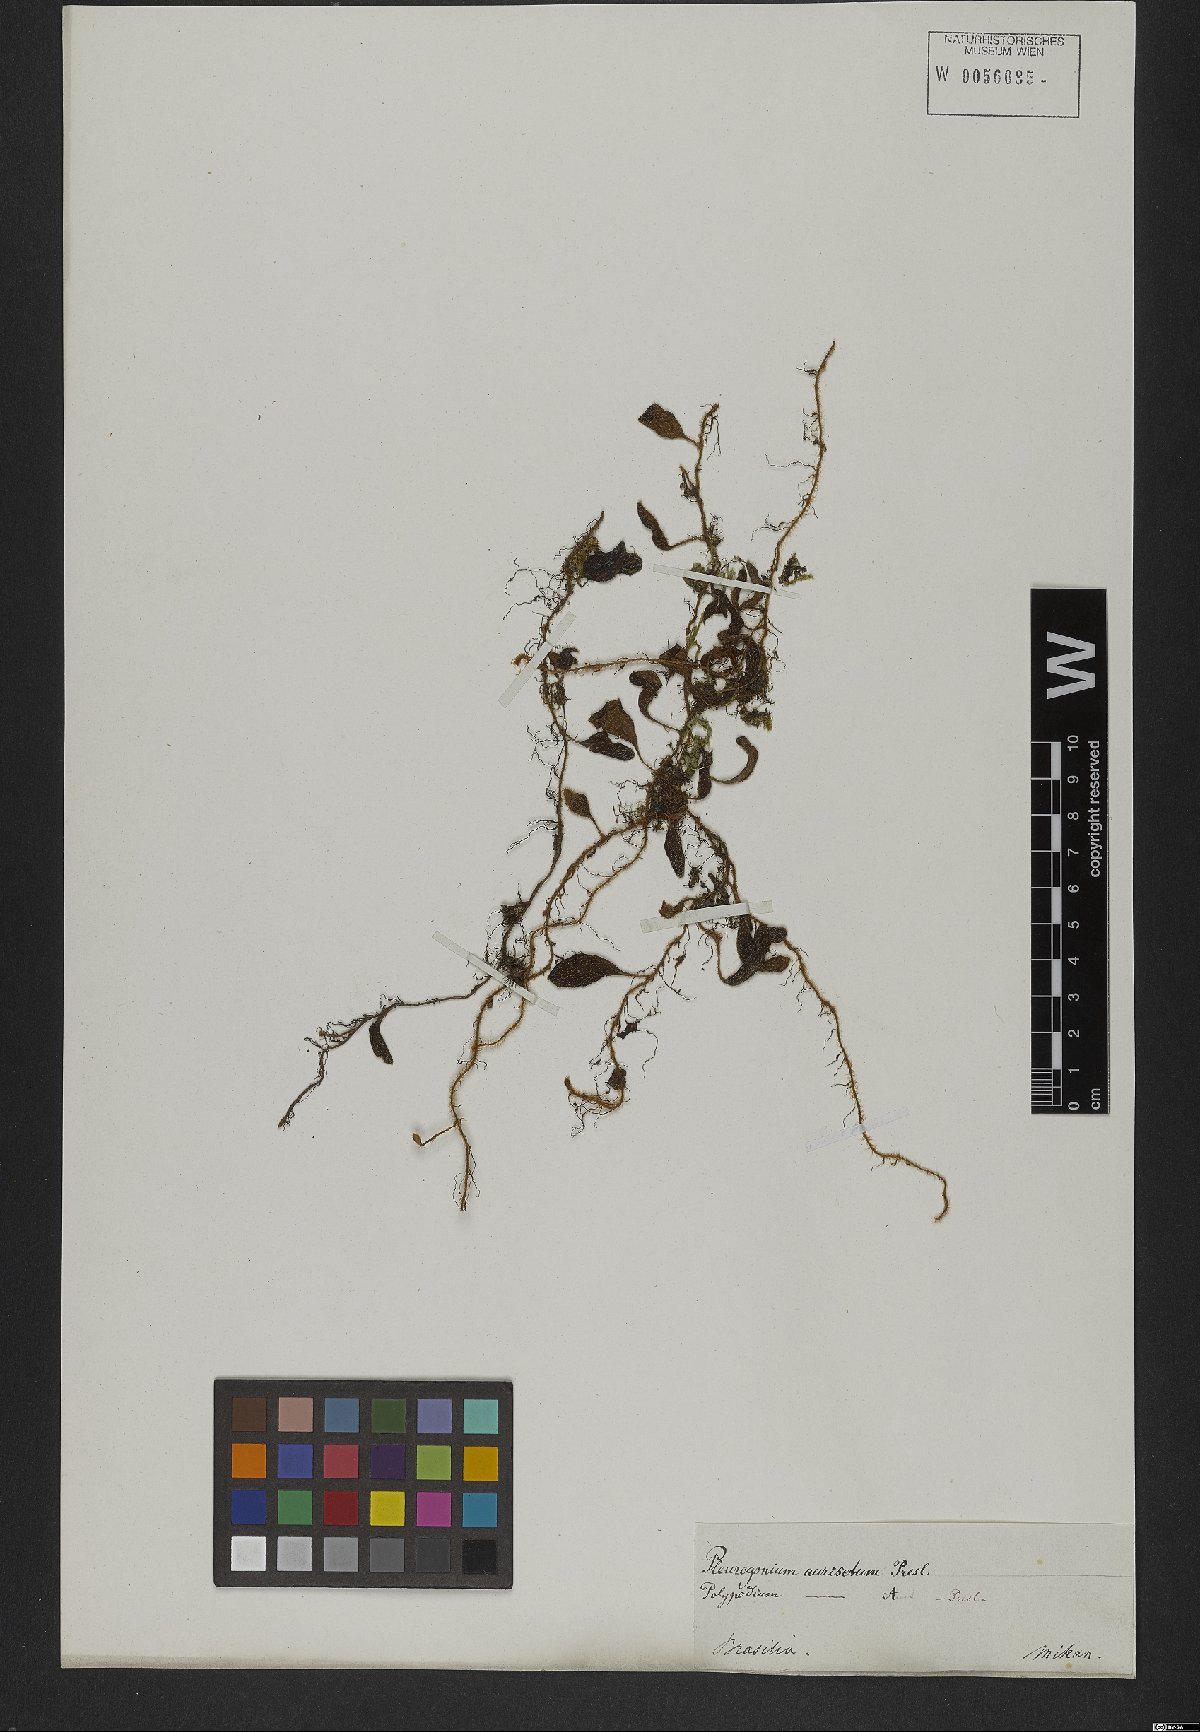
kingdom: Plantae
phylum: Tracheophyta
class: Polypodiopsida
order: Polypodiales
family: Polypodiaceae
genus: Microgramma
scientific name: Microgramma tecta
